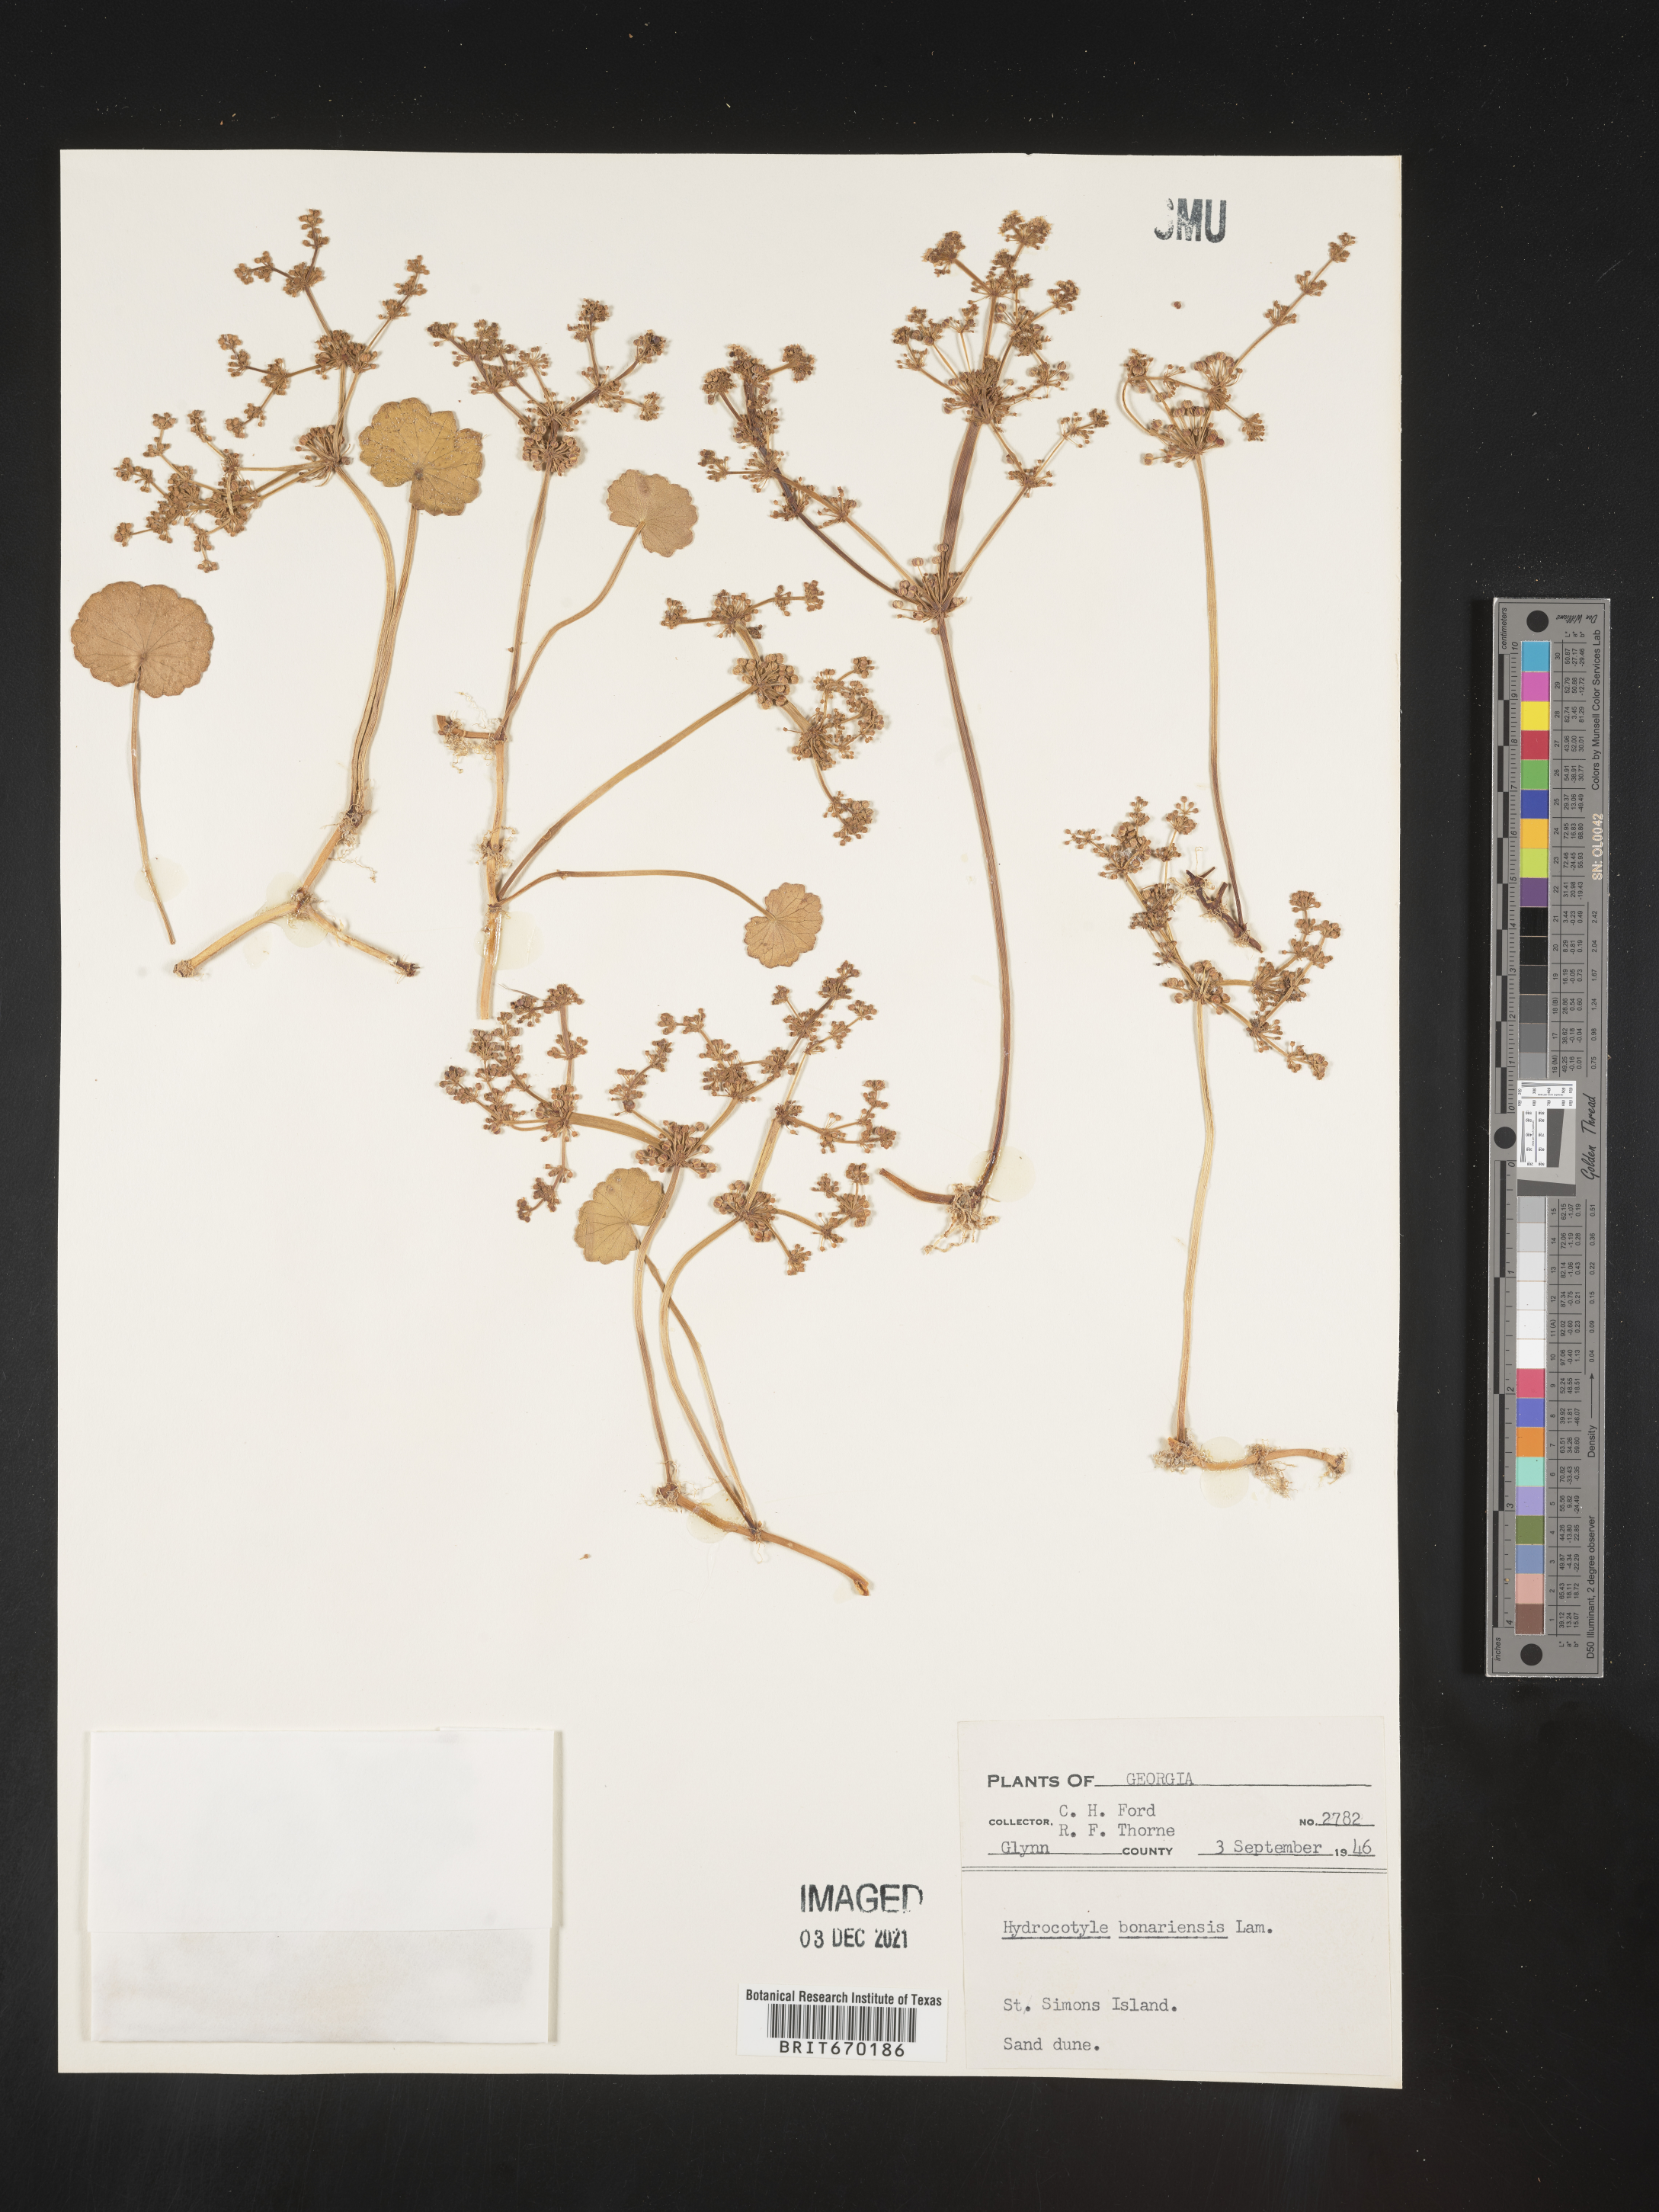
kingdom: Plantae
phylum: Tracheophyta
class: Magnoliopsida
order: Apiales
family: Araliaceae
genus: Hydrocotyle
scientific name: Hydrocotyle bonariensis
